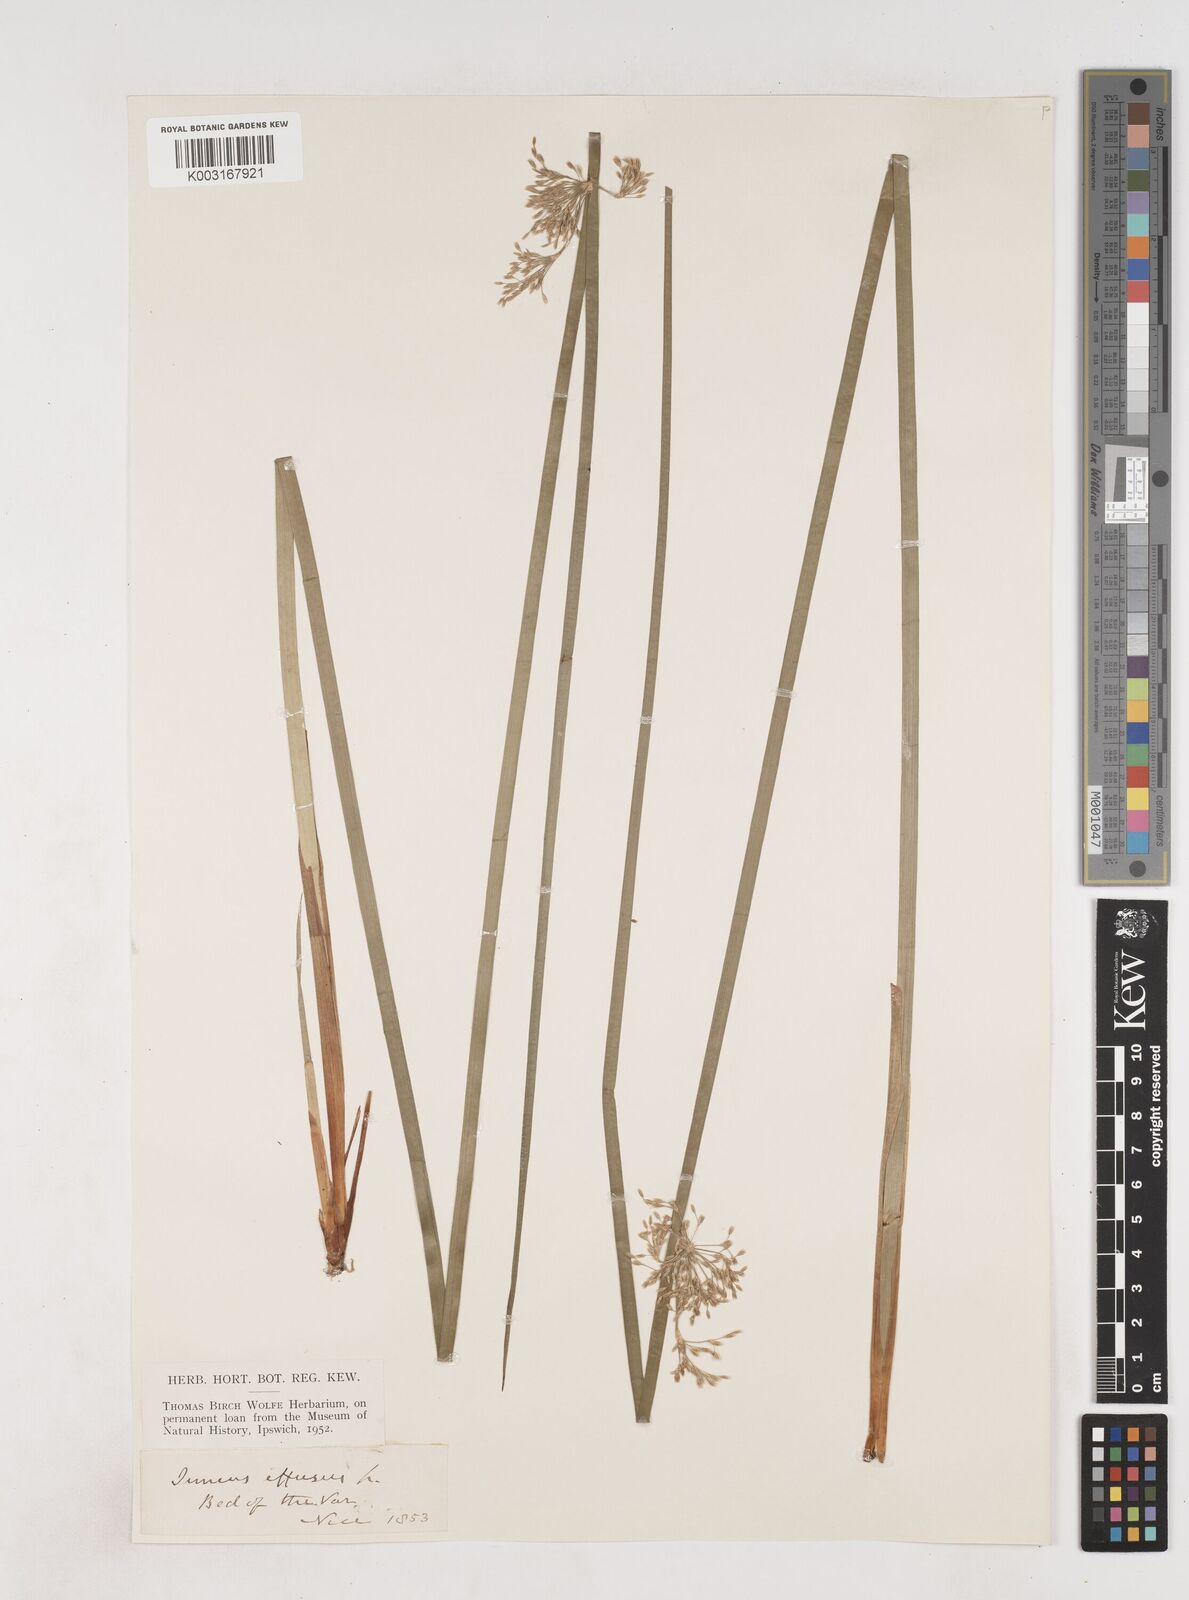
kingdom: Plantae
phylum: Tracheophyta
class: Liliopsida
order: Poales
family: Juncaceae
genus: Juncus
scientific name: Juncus effusus
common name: Soft rush
